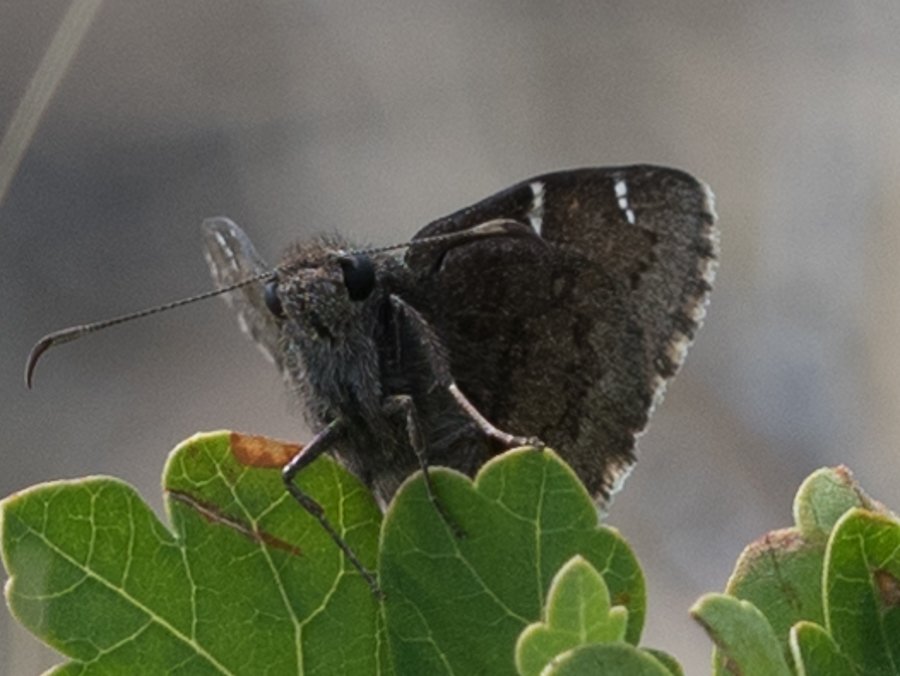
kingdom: Animalia
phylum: Arthropoda
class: Insecta
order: Lepidoptera
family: Hesperiidae
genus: Autochton
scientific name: Autochton
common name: Northern Cloudywing
